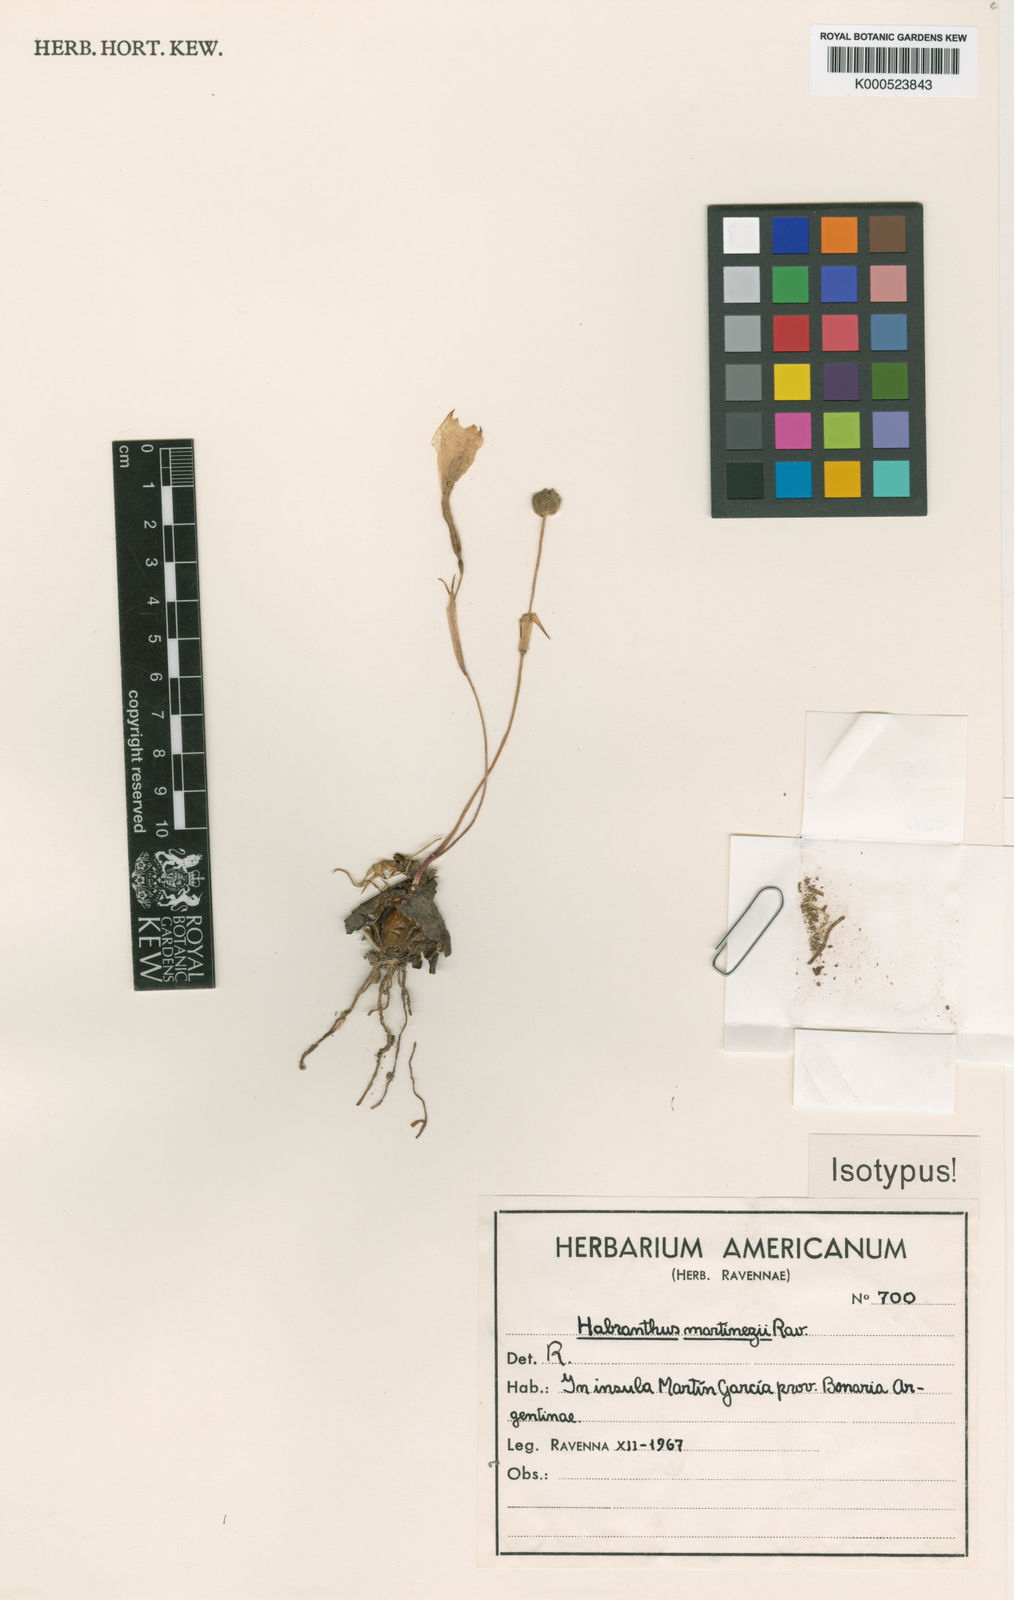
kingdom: Plantae
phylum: Tracheophyta
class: Liliopsida
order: Asparagales
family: Amaryllidaceae
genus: Zephyranthes
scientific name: Zephyranthes martinezii
